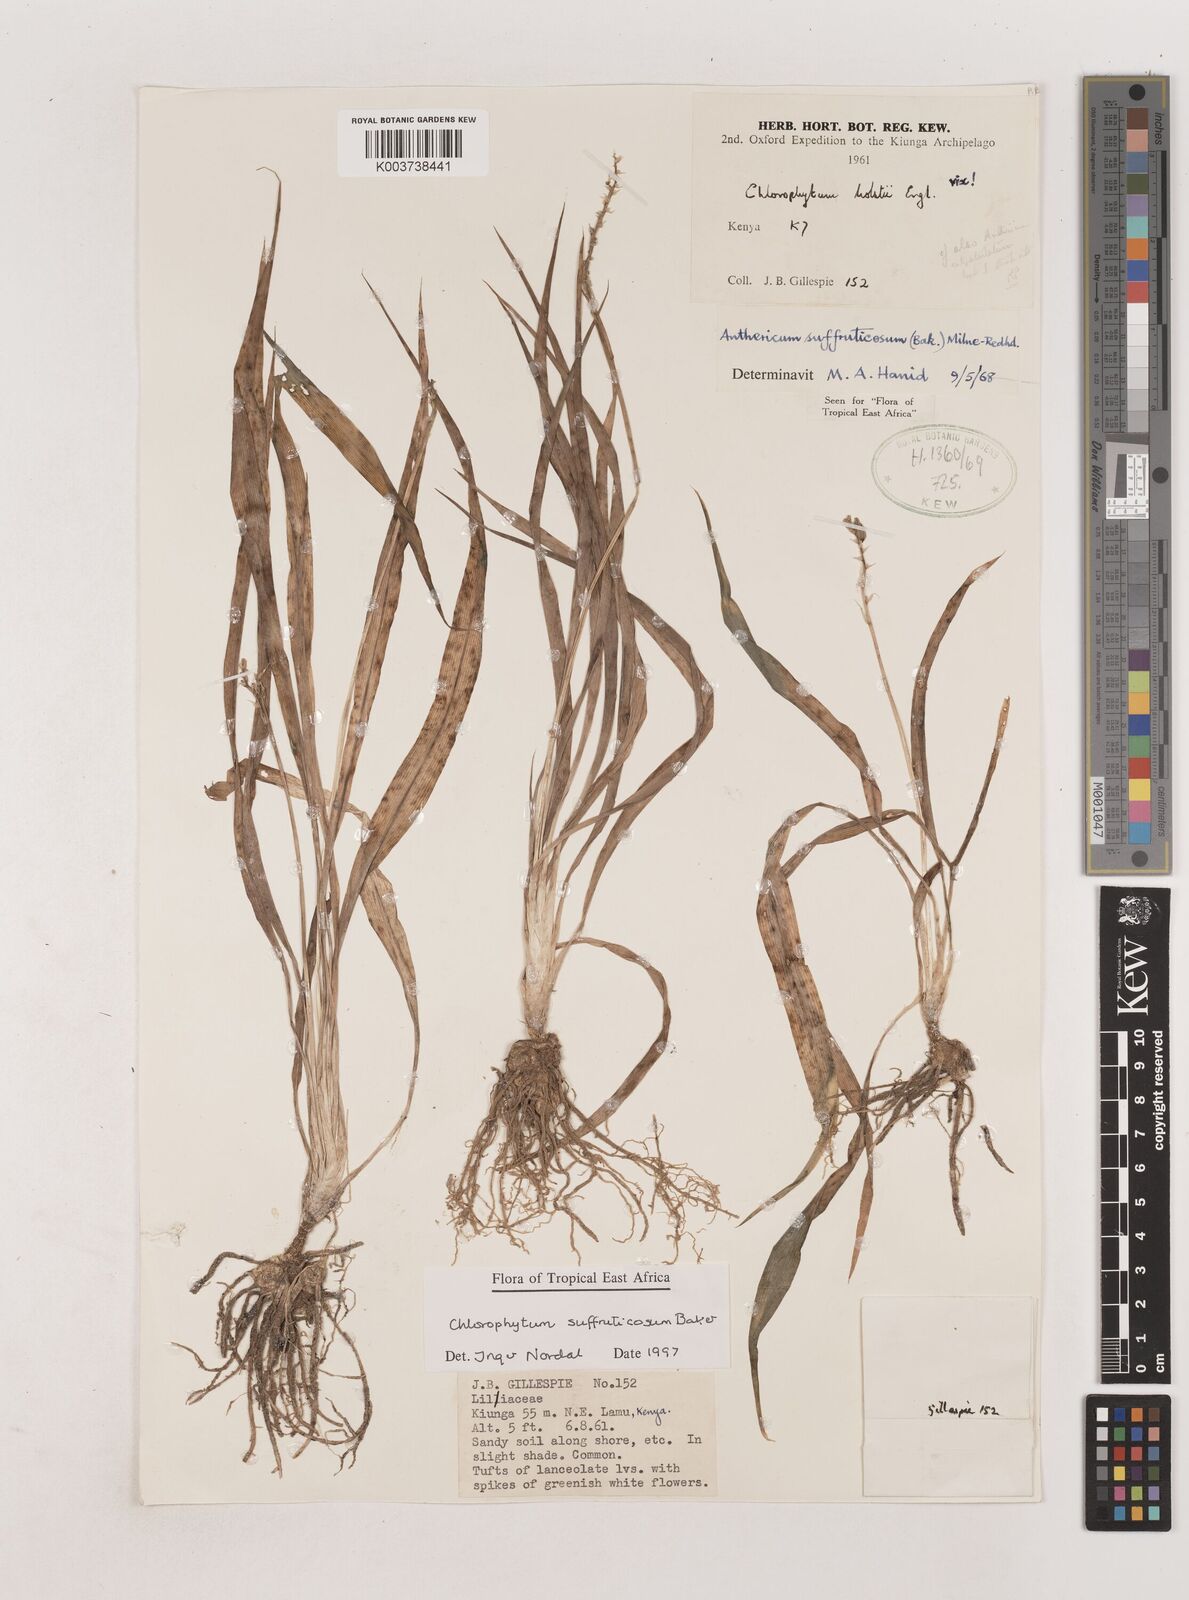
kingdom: Plantae
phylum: Tracheophyta
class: Liliopsida
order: Asparagales
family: Asparagaceae
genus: Chlorophytum
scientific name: Chlorophytum suffruticosum
